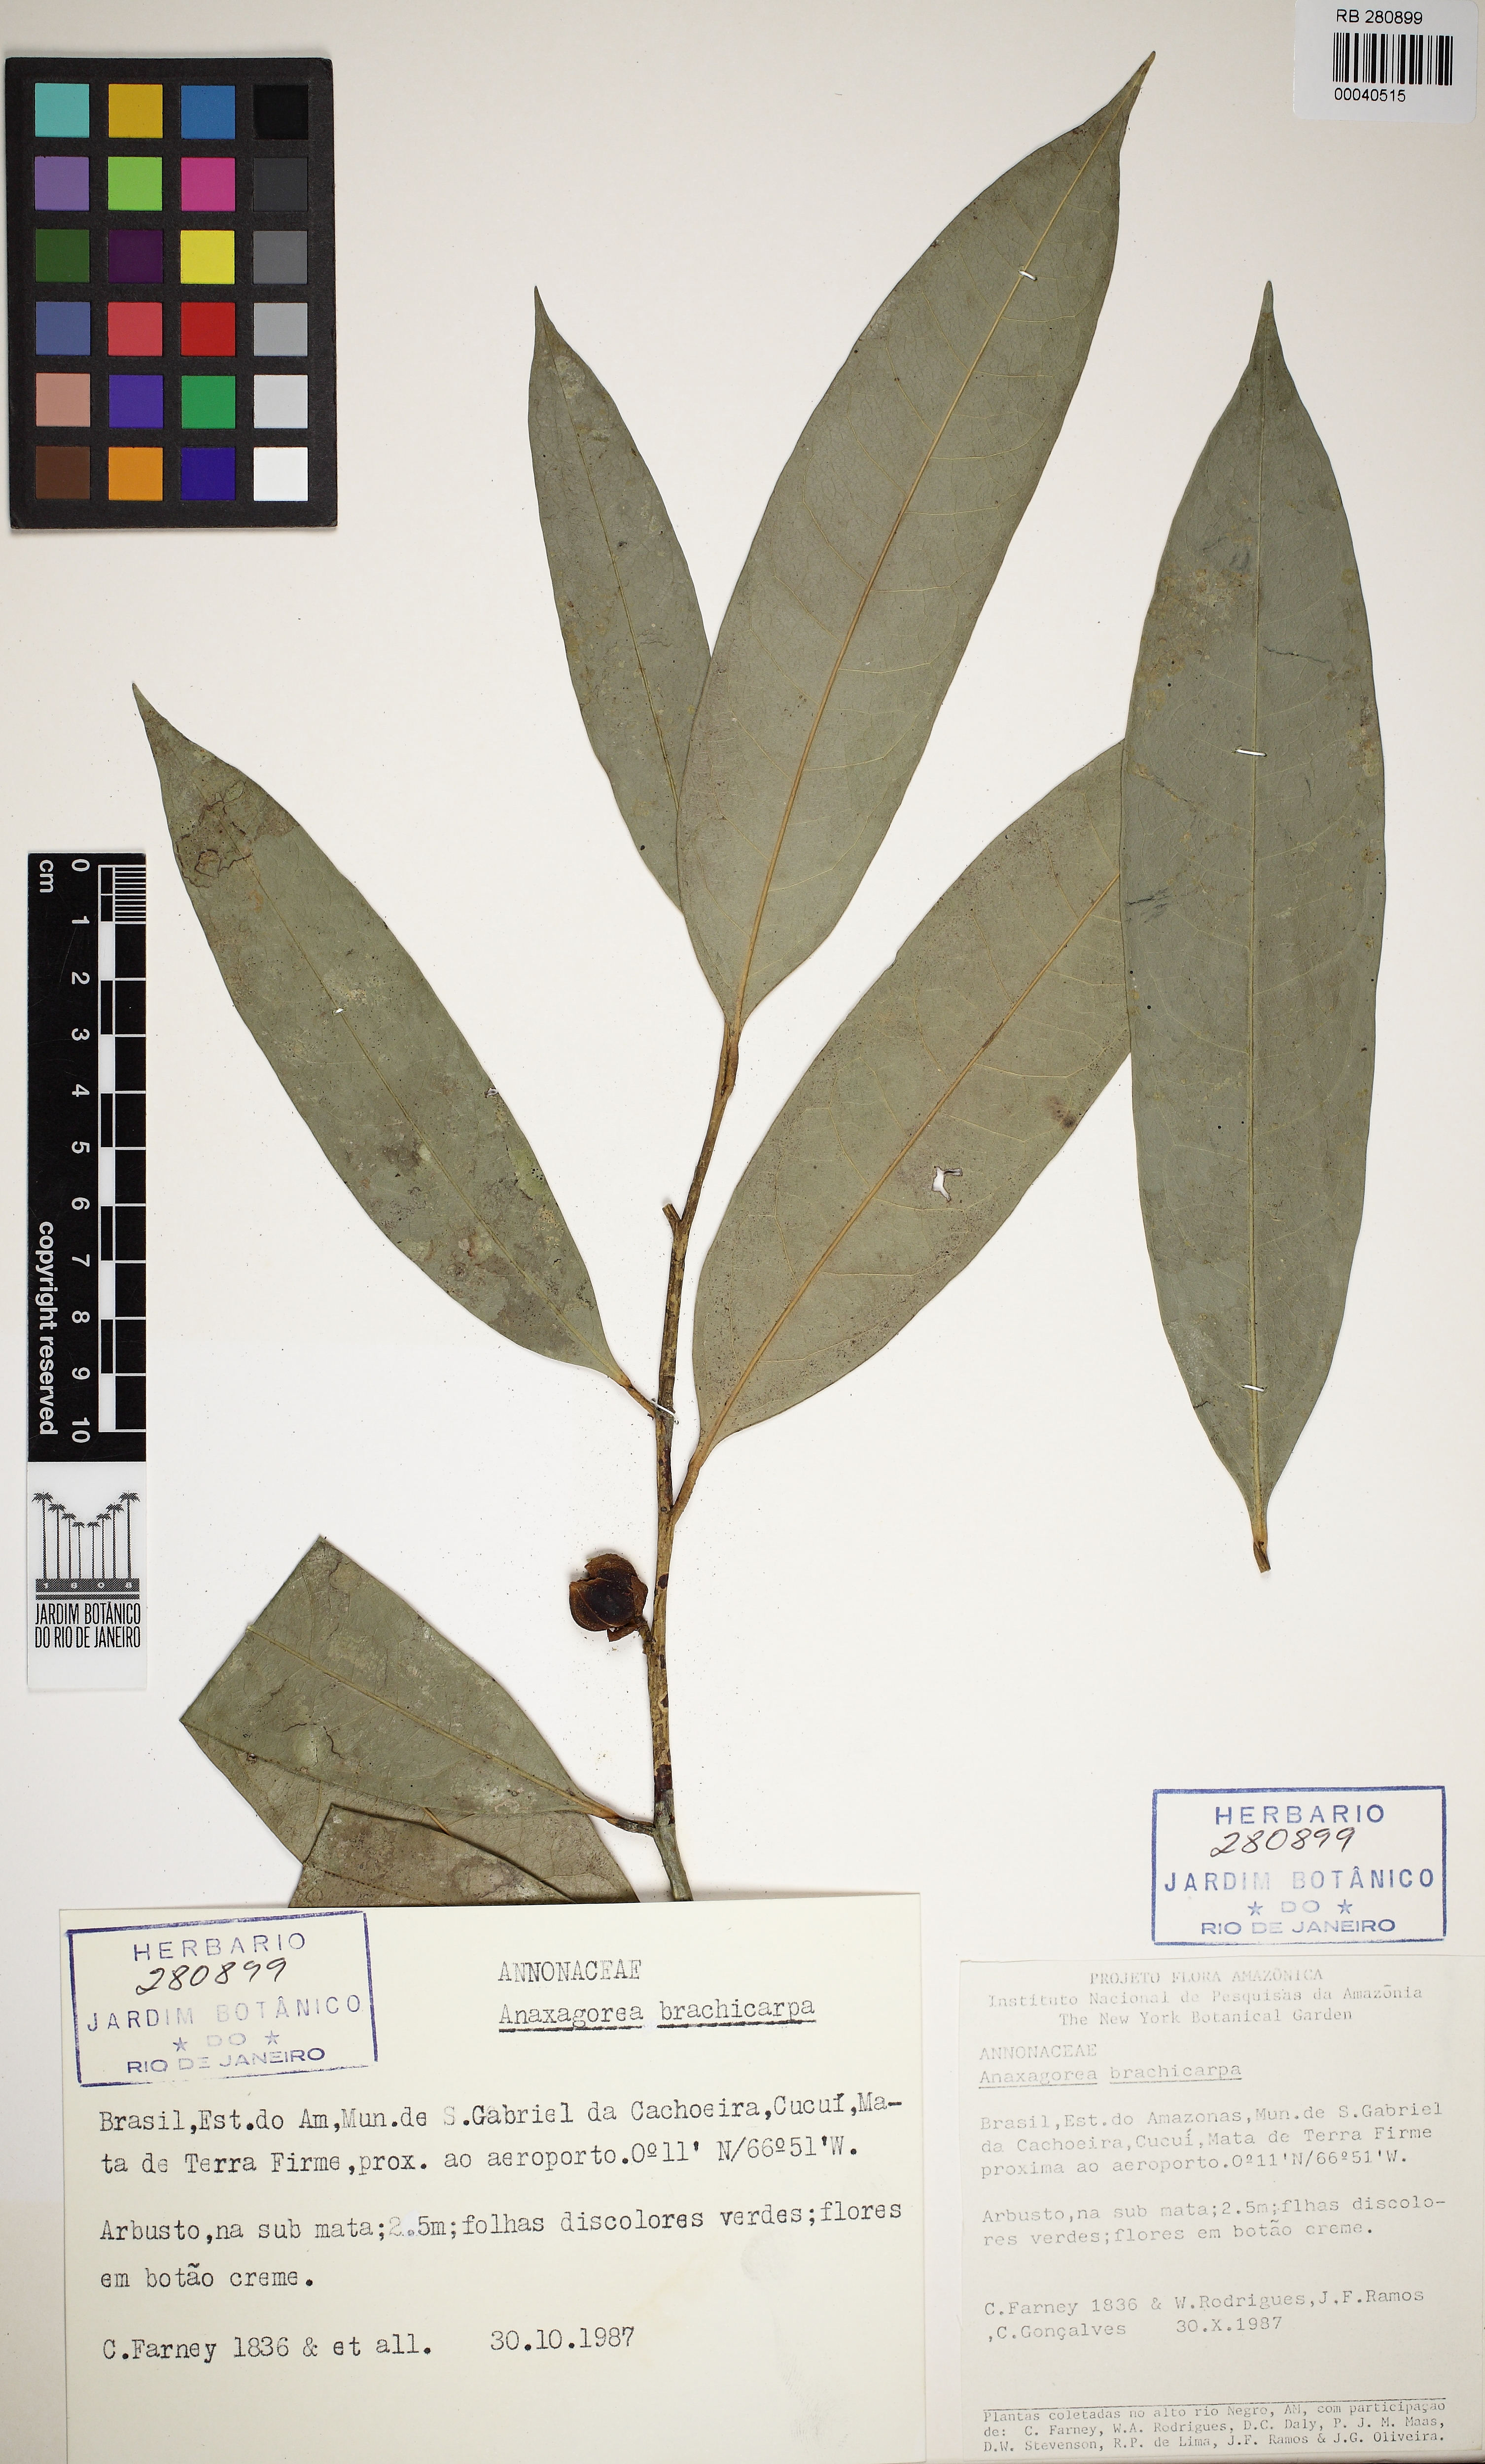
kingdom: Plantae
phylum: Tracheophyta
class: Magnoliopsida
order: Magnoliales
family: Annonaceae
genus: Anaxagorea
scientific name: Anaxagorea brachycarpa
